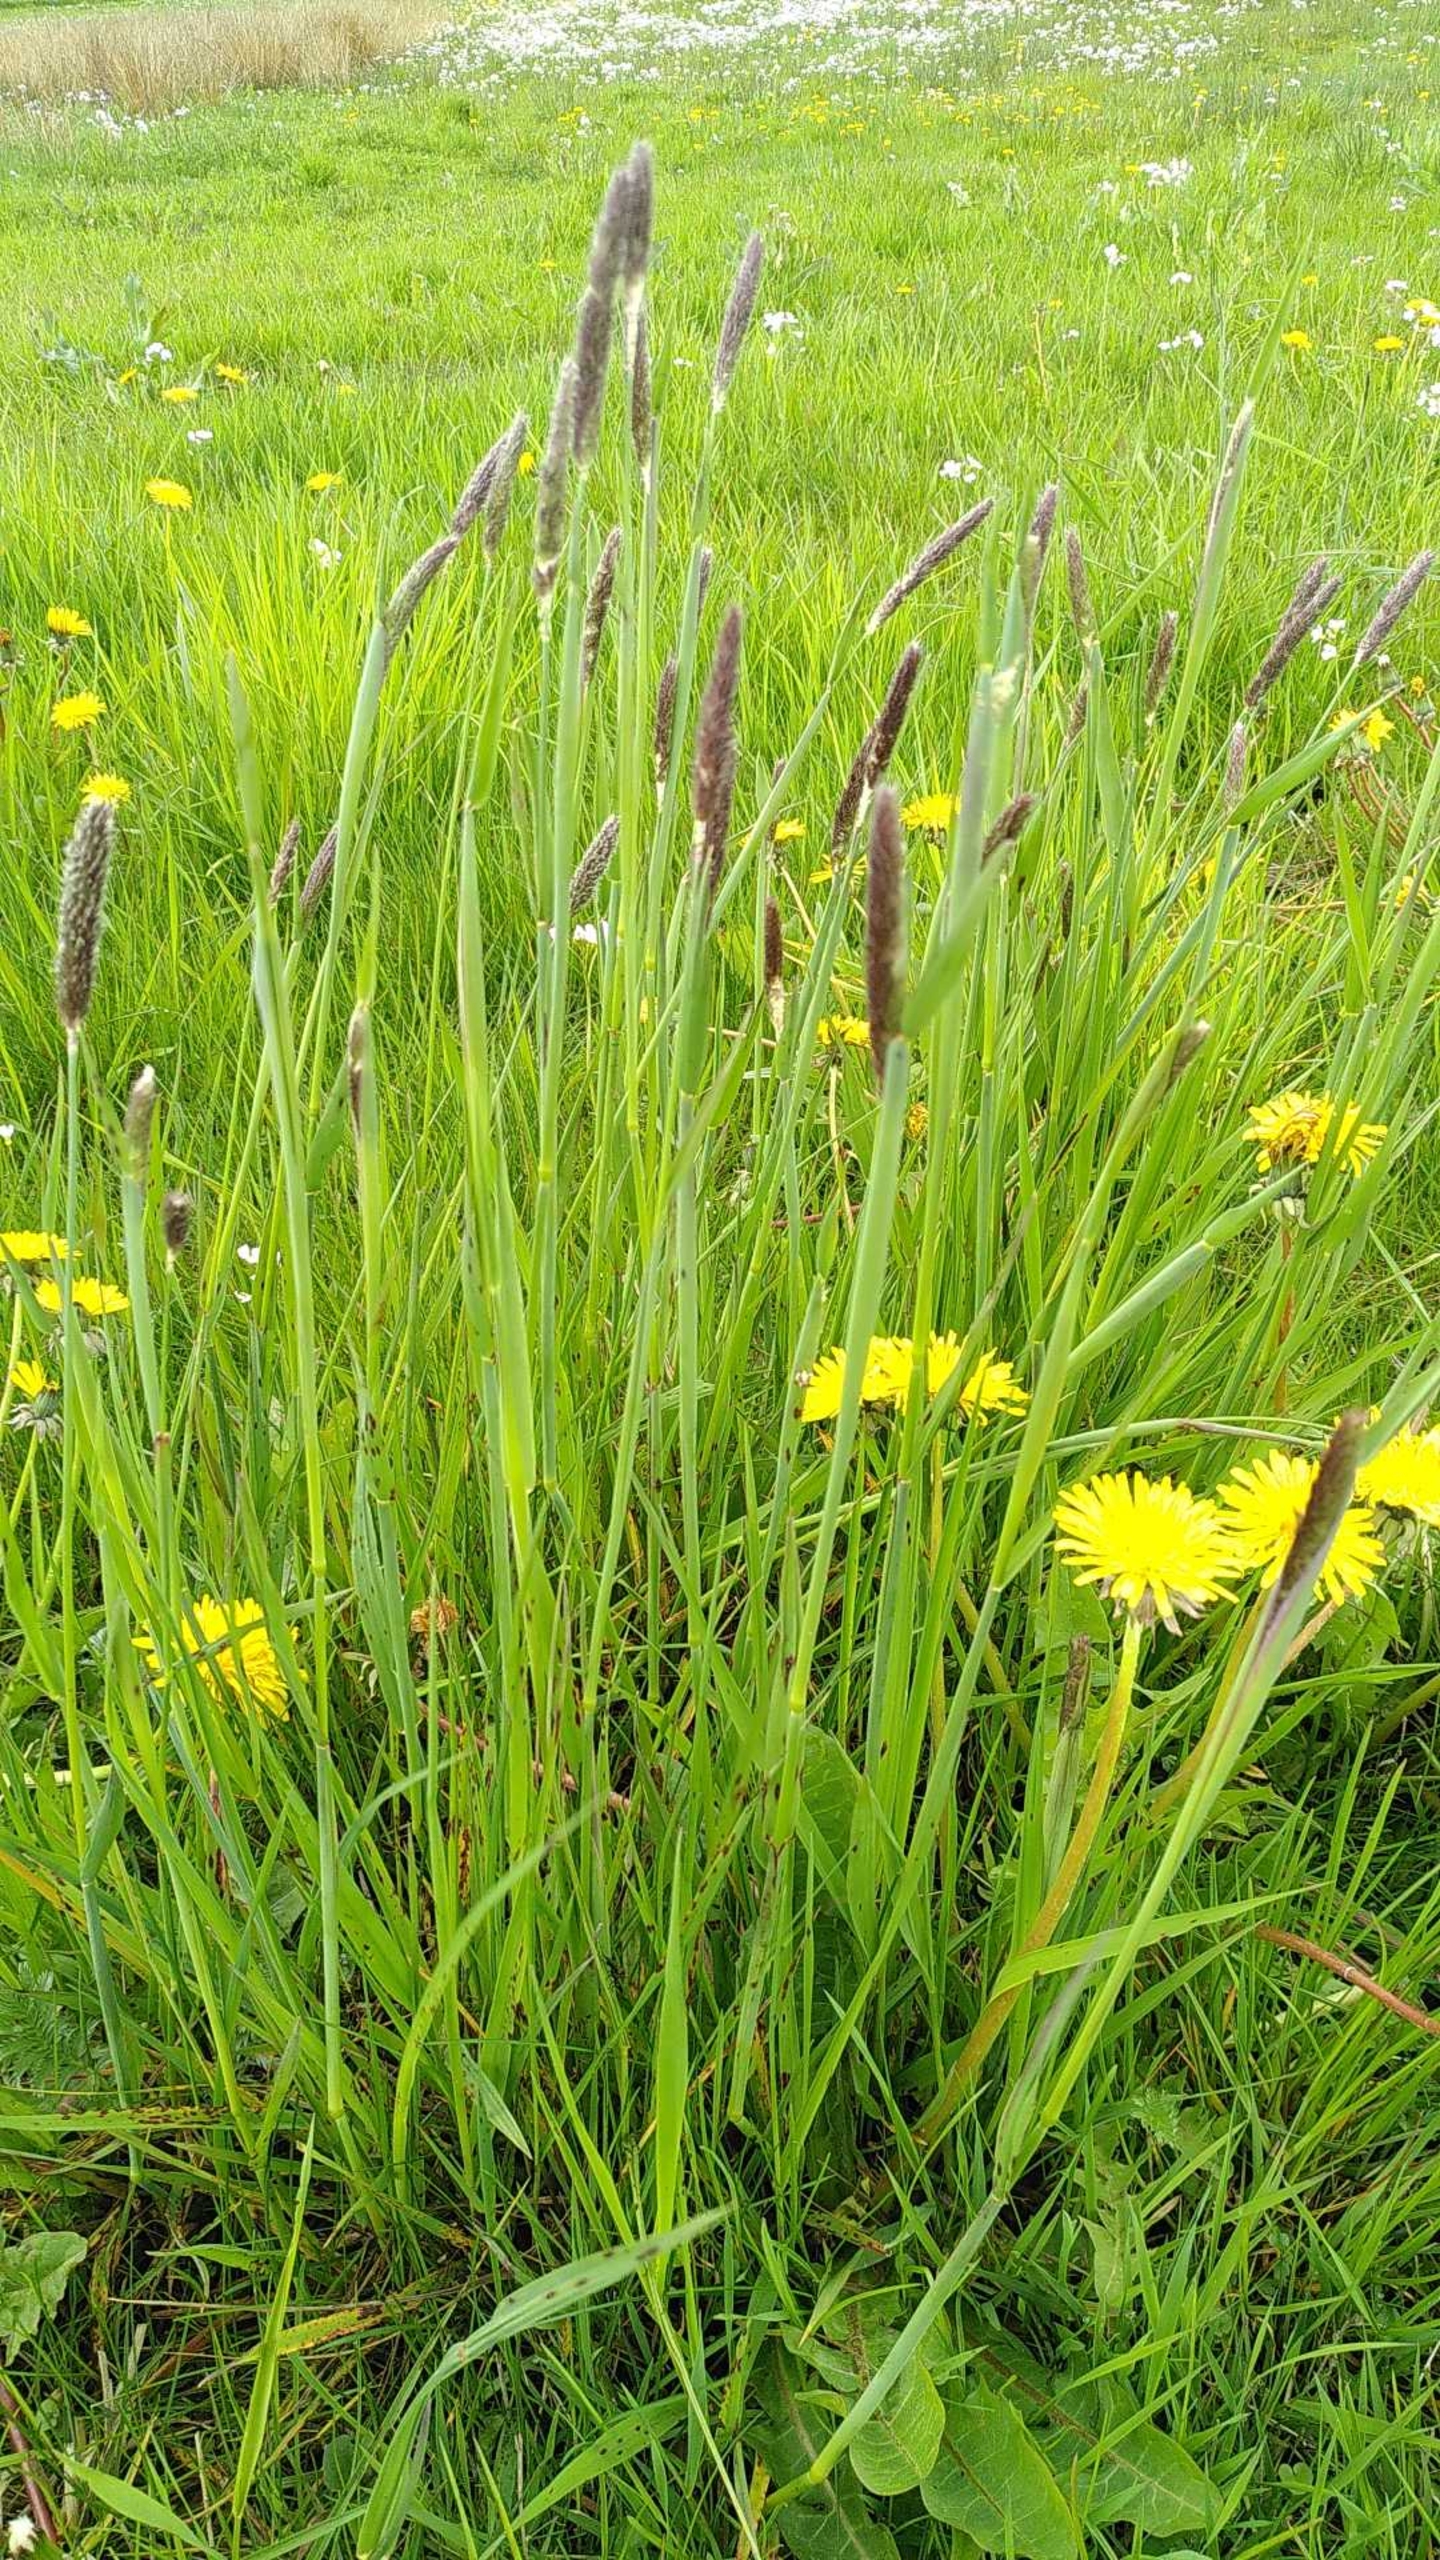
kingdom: Plantae
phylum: Tracheophyta
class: Liliopsida
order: Poales
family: Poaceae
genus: Alopecurus
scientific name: Alopecurus pratensis
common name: Eng-rævehale
